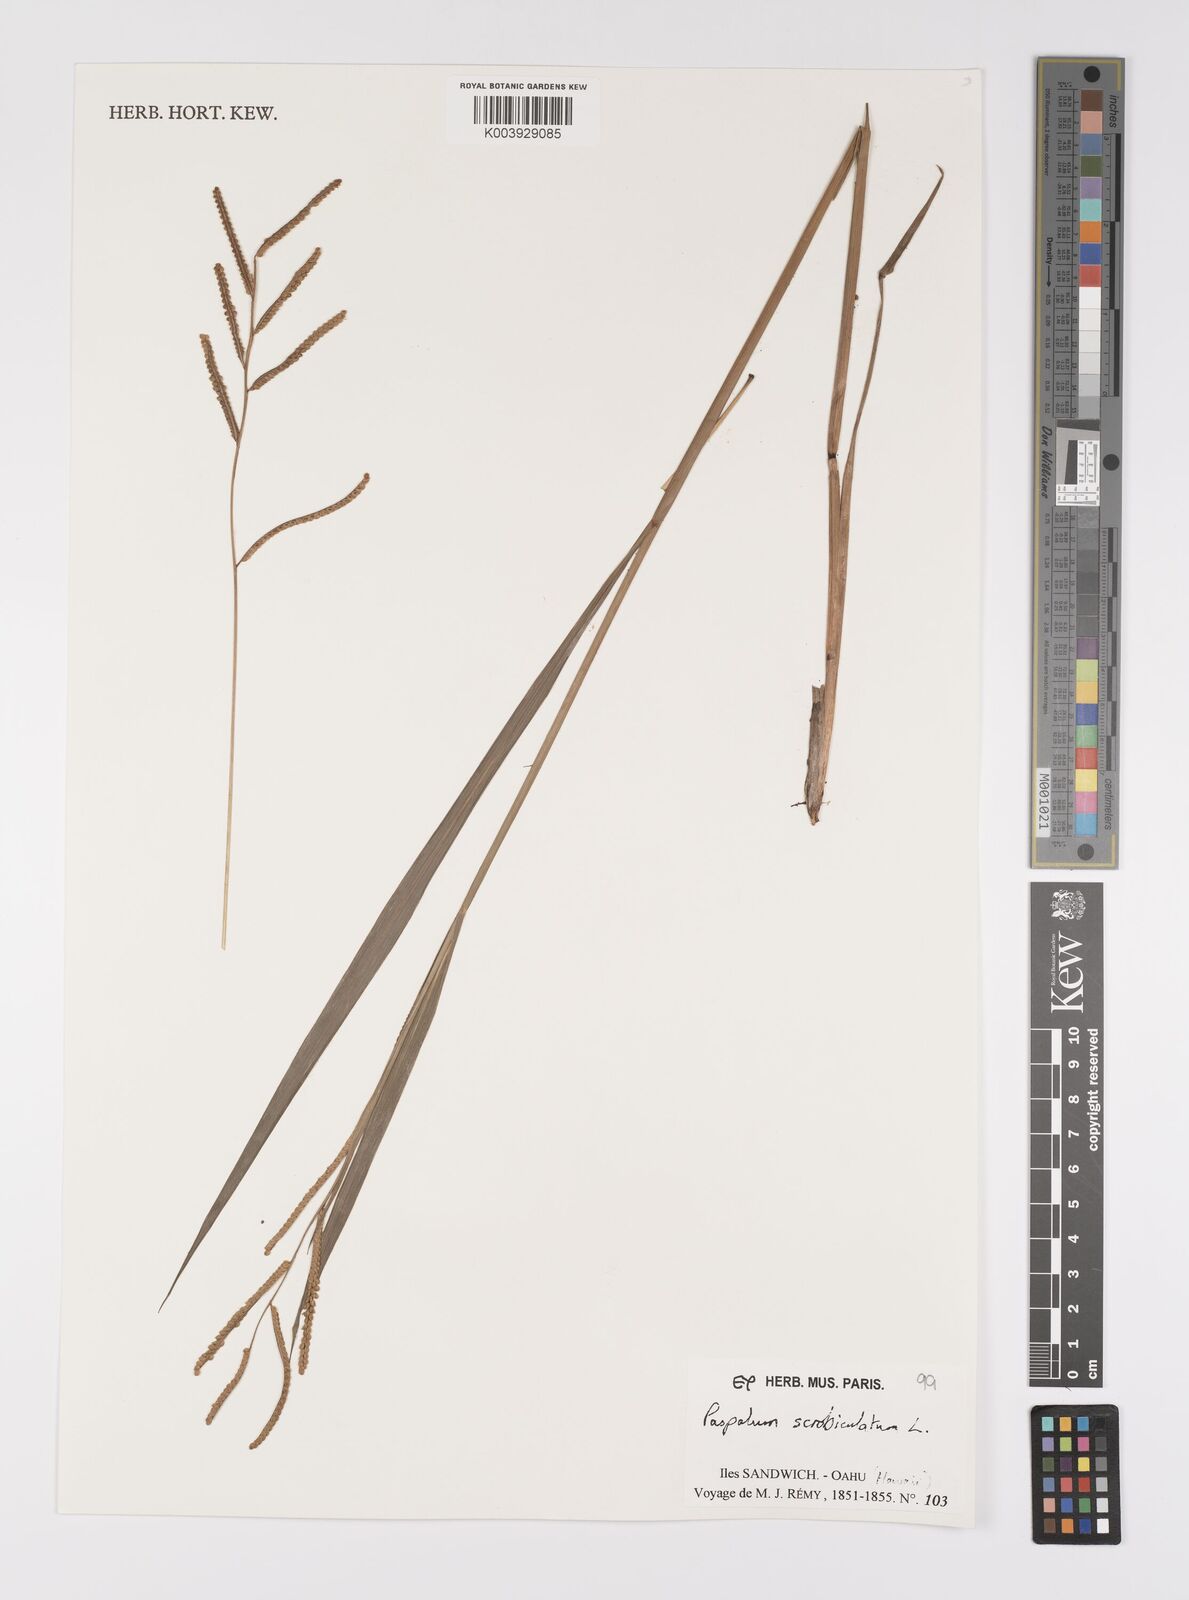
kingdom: Plantae
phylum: Tracheophyta
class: Liliopsida
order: Poales
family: Poaceae
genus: Paspalum
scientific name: Paspalum scrobiculatum
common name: Kodo millet
